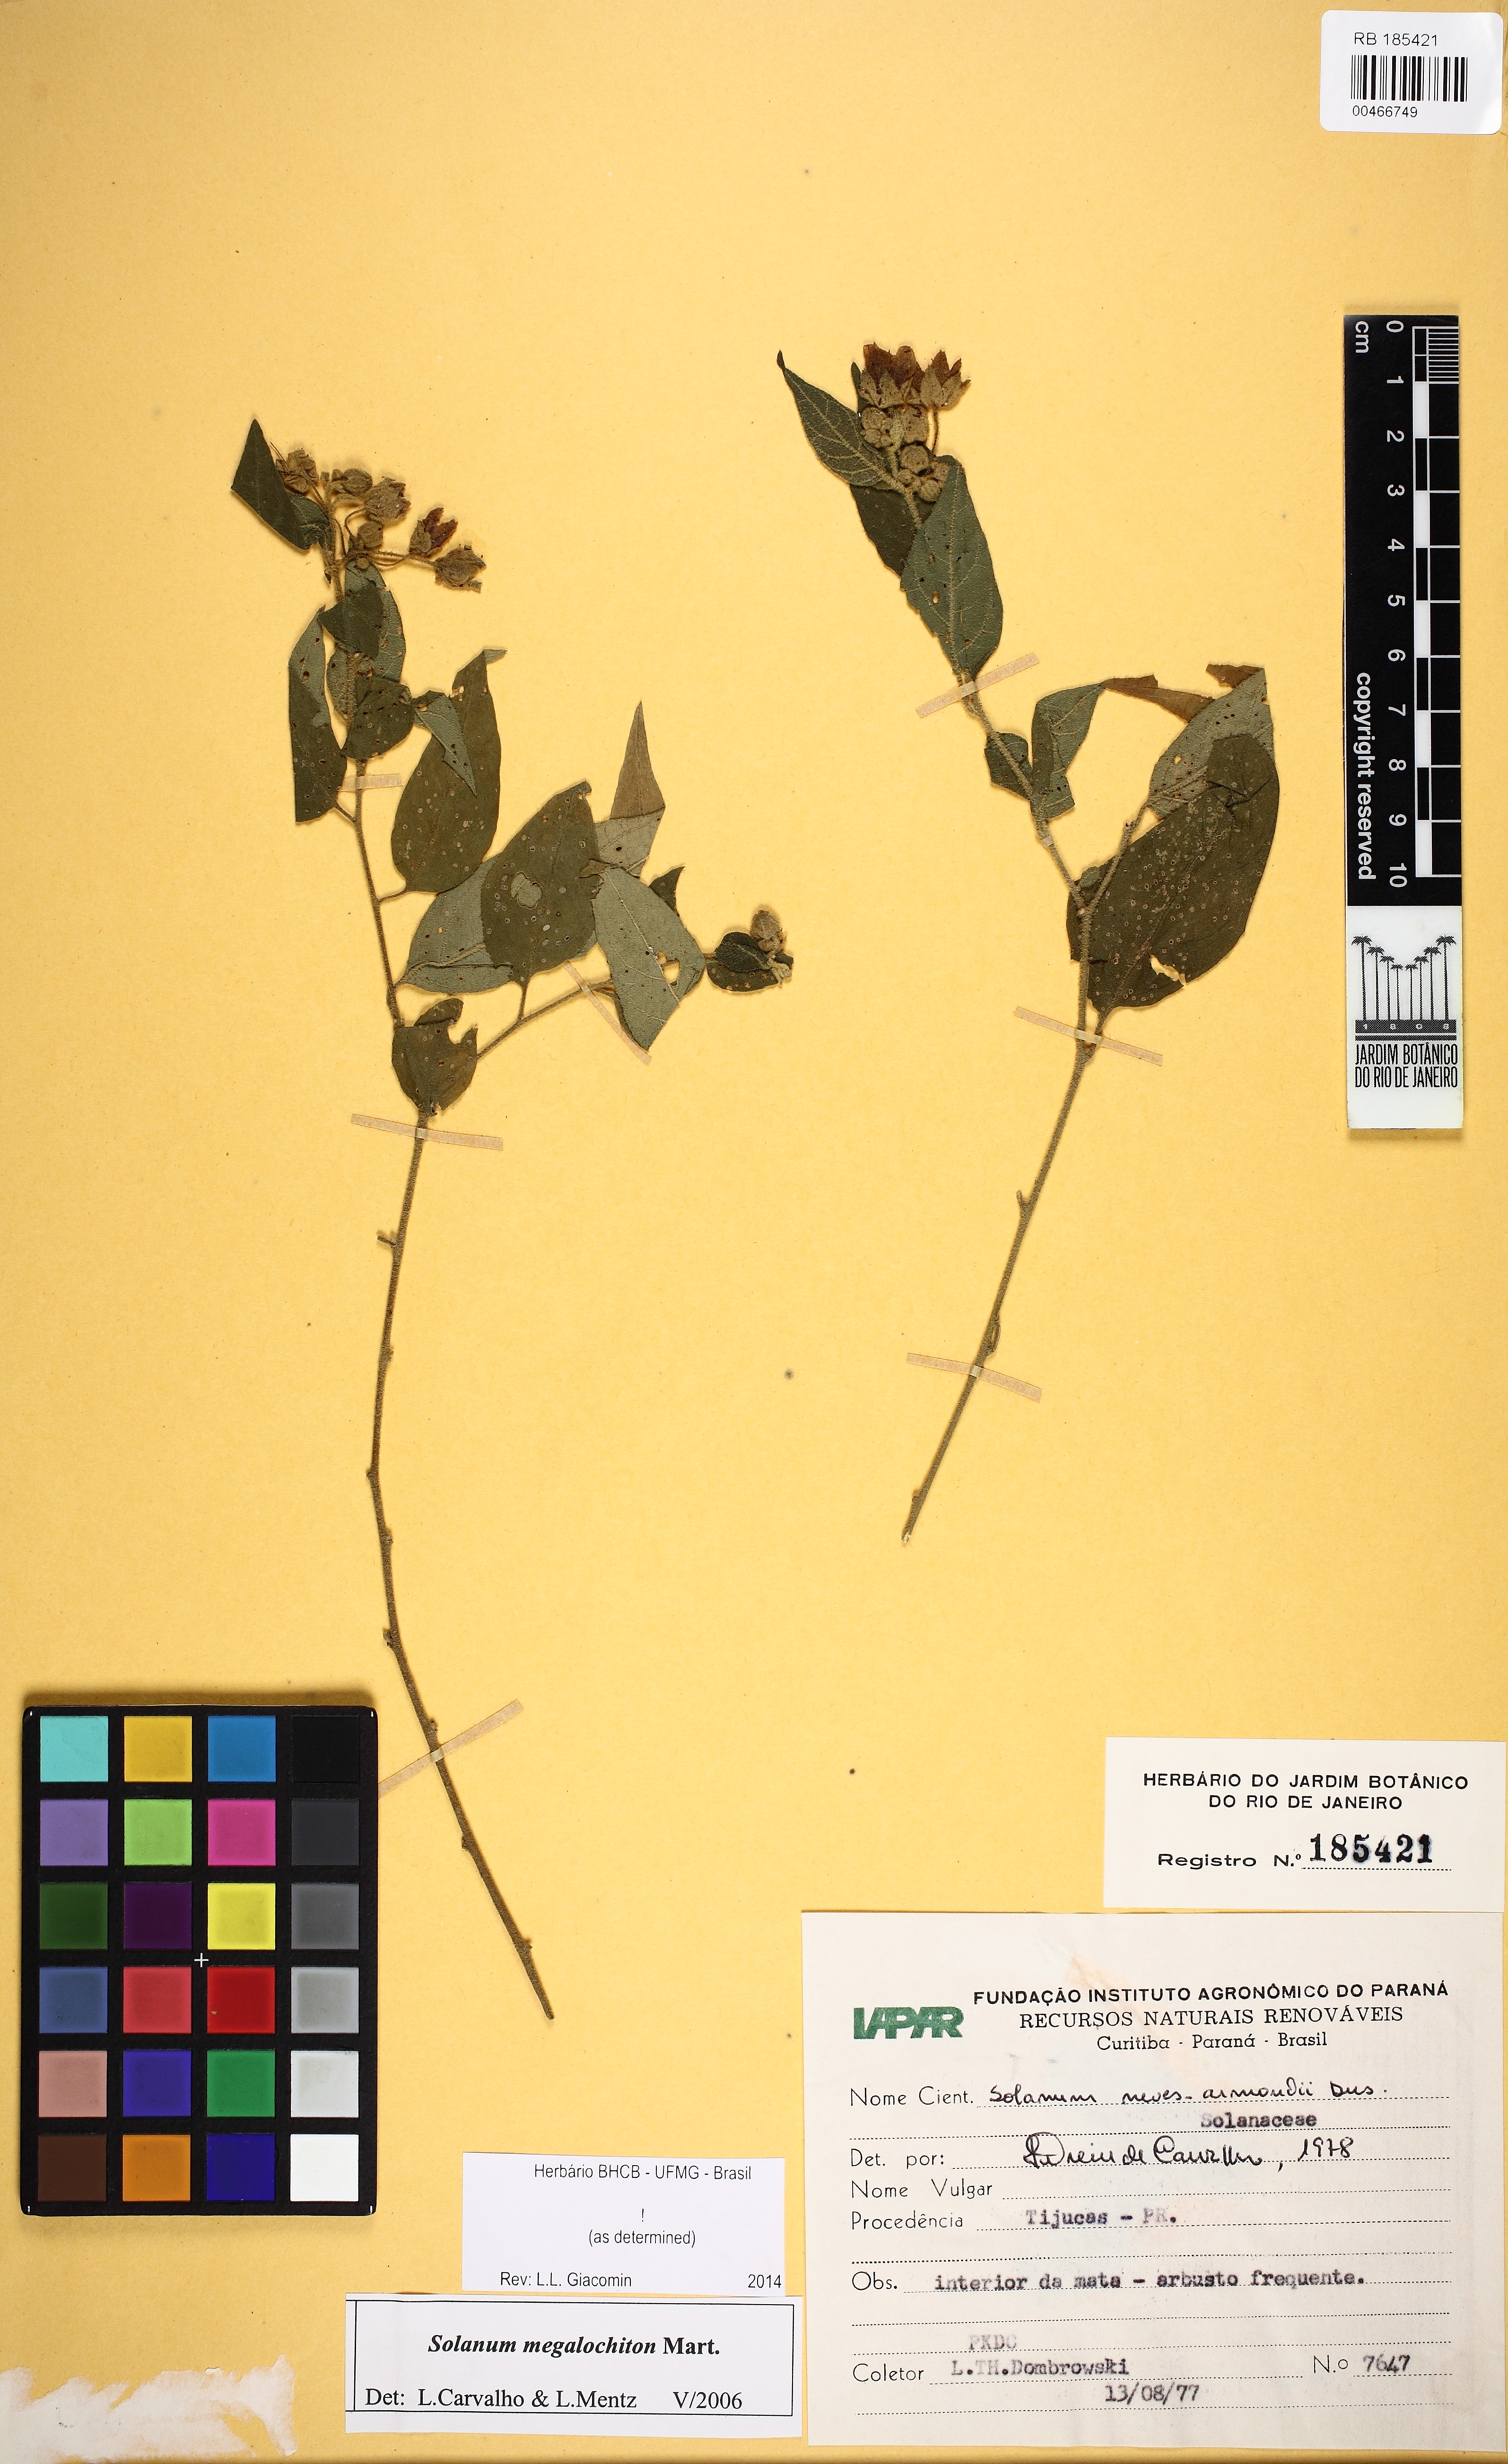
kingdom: Plantae
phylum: Tracheophyta
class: Magnoliopsida
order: Solanales
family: Solanaceae
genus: Solanum
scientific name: Solanum megalochiton
